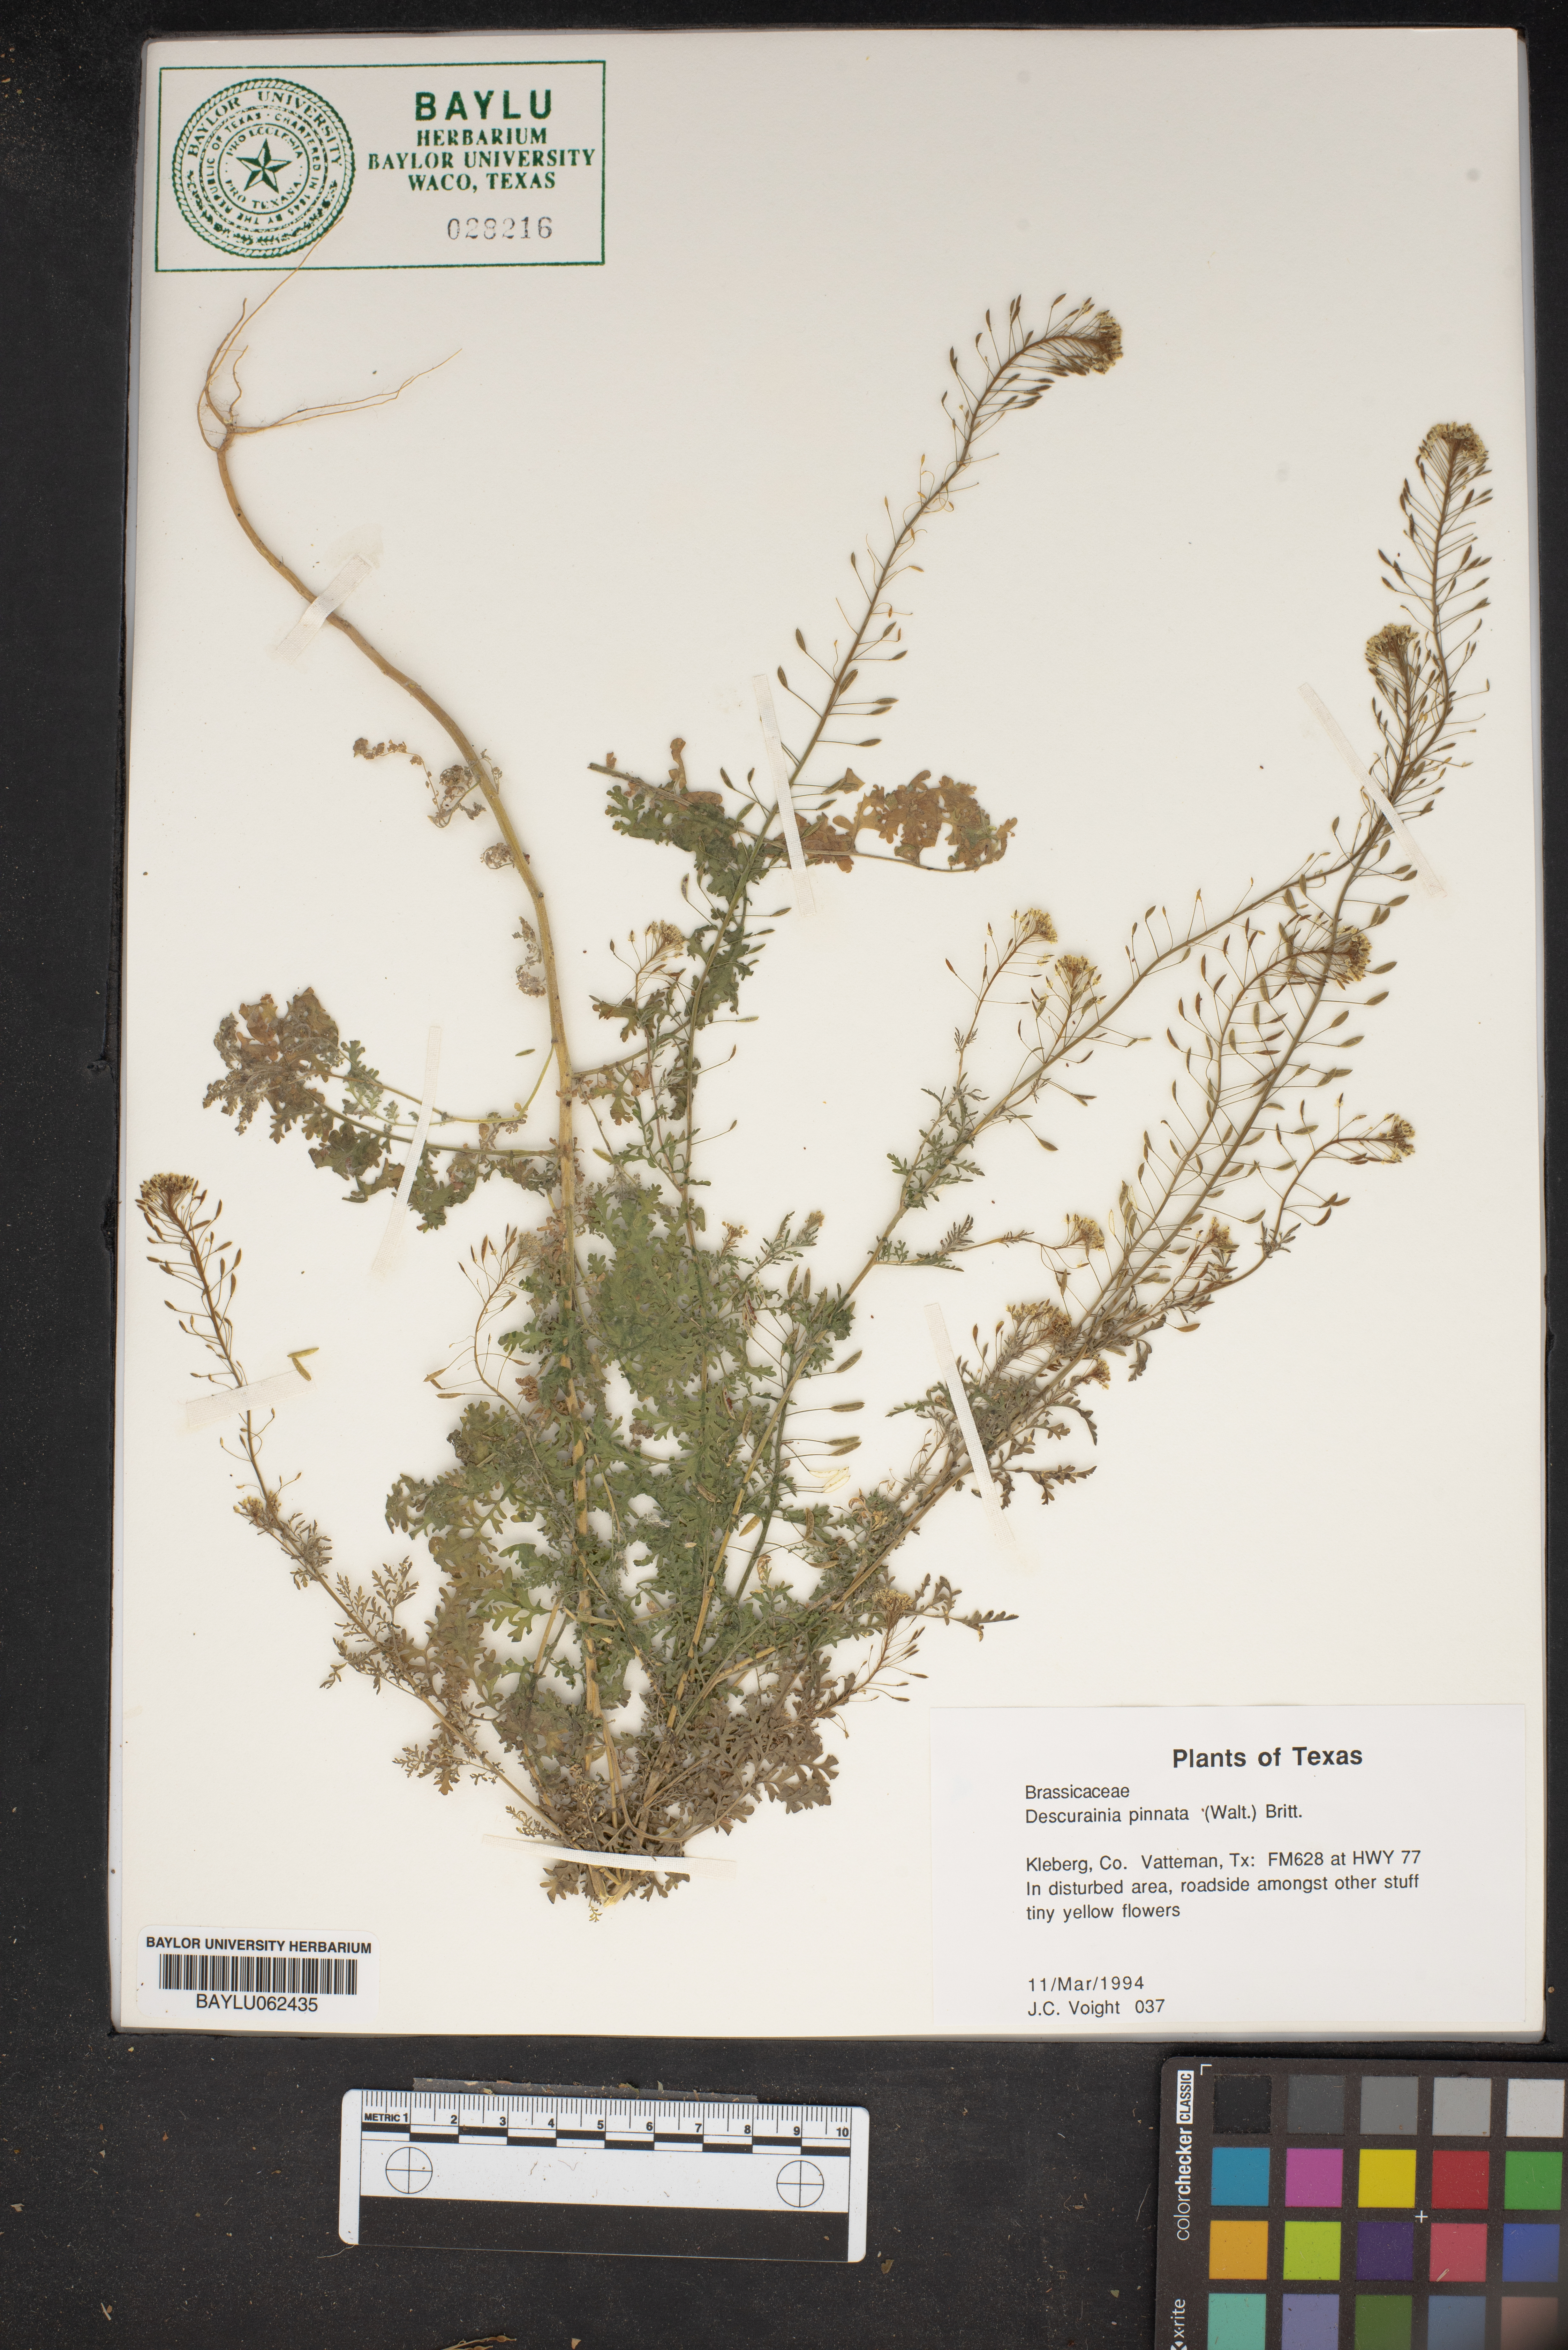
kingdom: Plantae
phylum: Tracheophyta
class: Magnoliopsida
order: Brassicales
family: Brassicaceae
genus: Descurainia
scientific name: Descurainia pinnata
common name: Western tansy mustard
